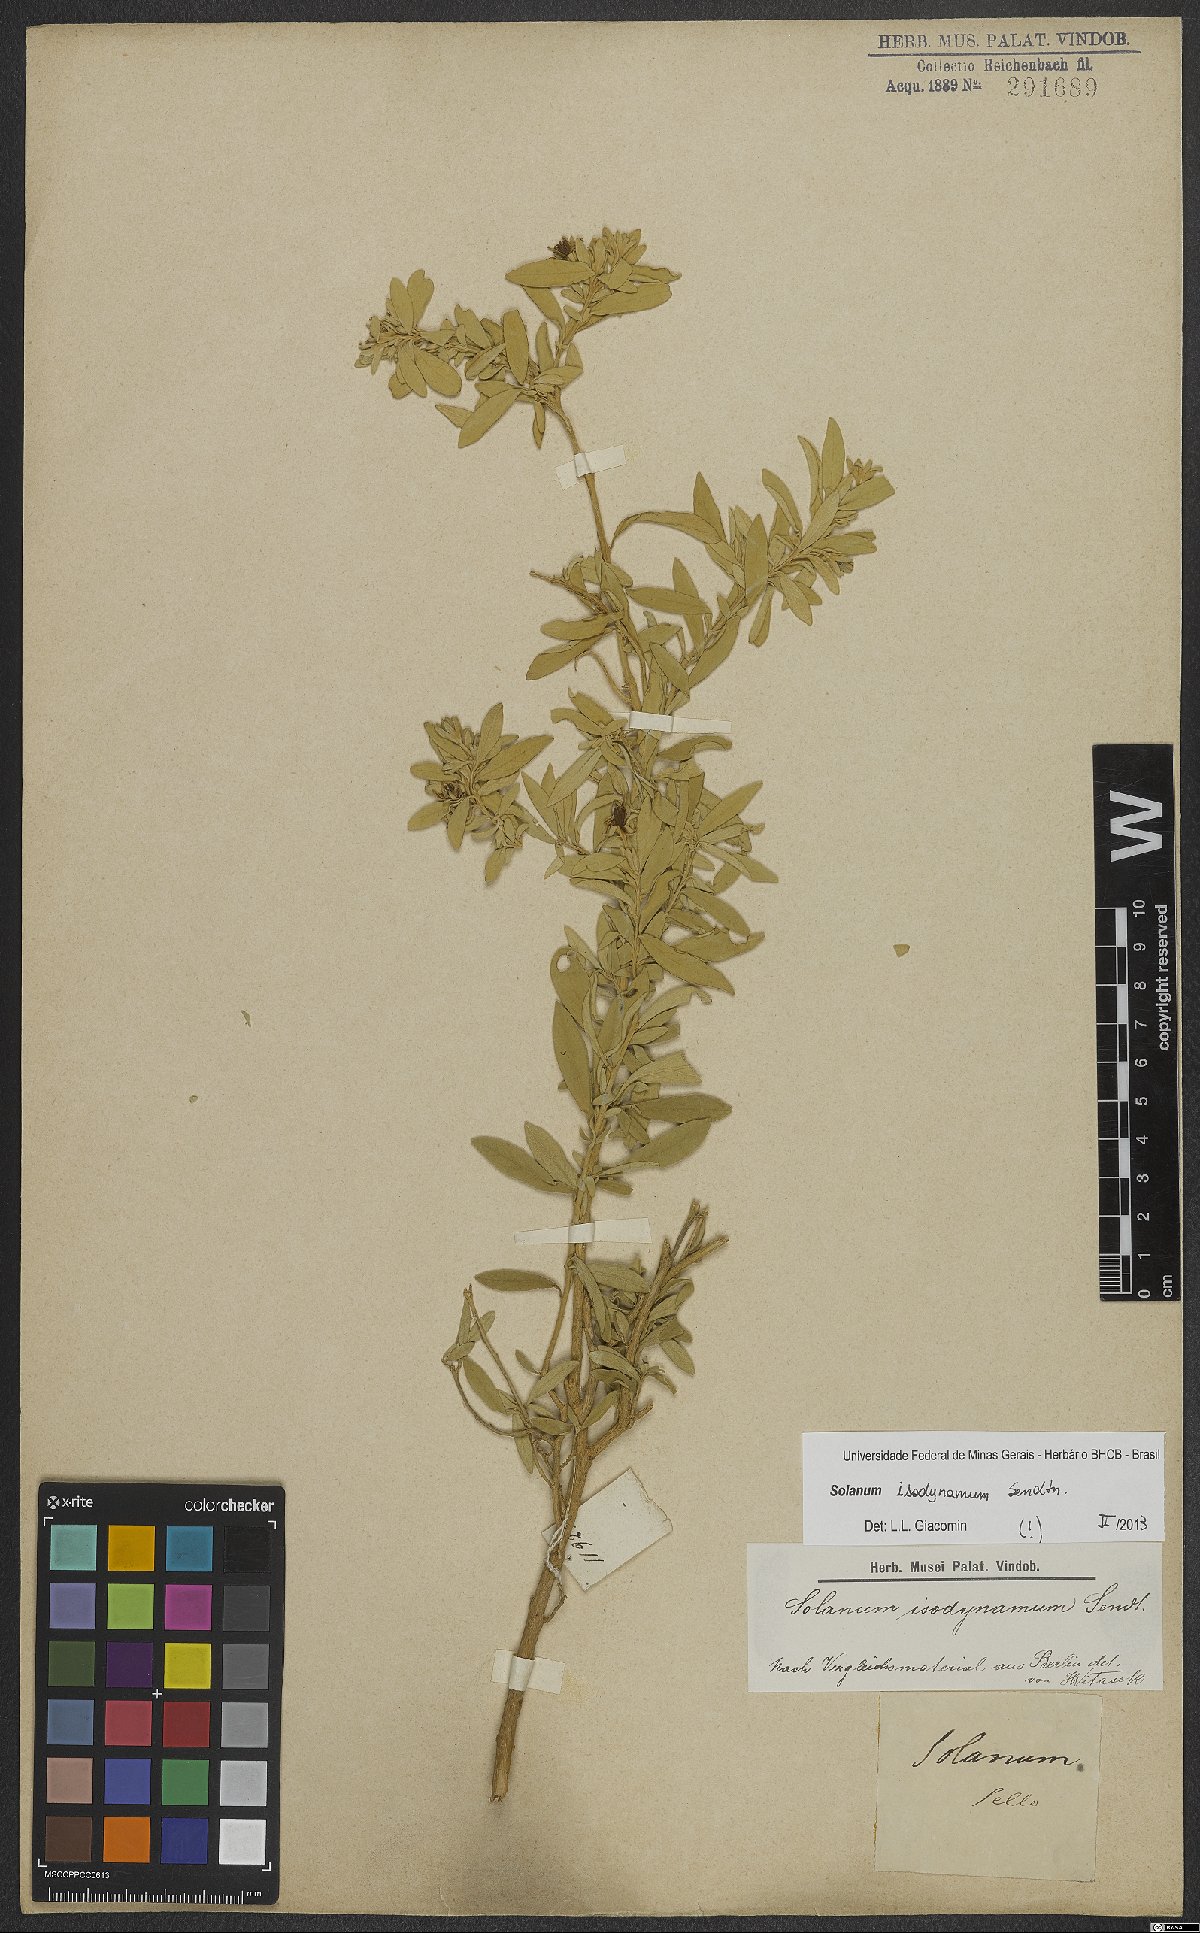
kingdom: Plantae
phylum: Tracheophyta
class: Magnoliopsida
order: Solanales
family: Solanaceae
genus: Solanum
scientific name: Solanum isodynamum
